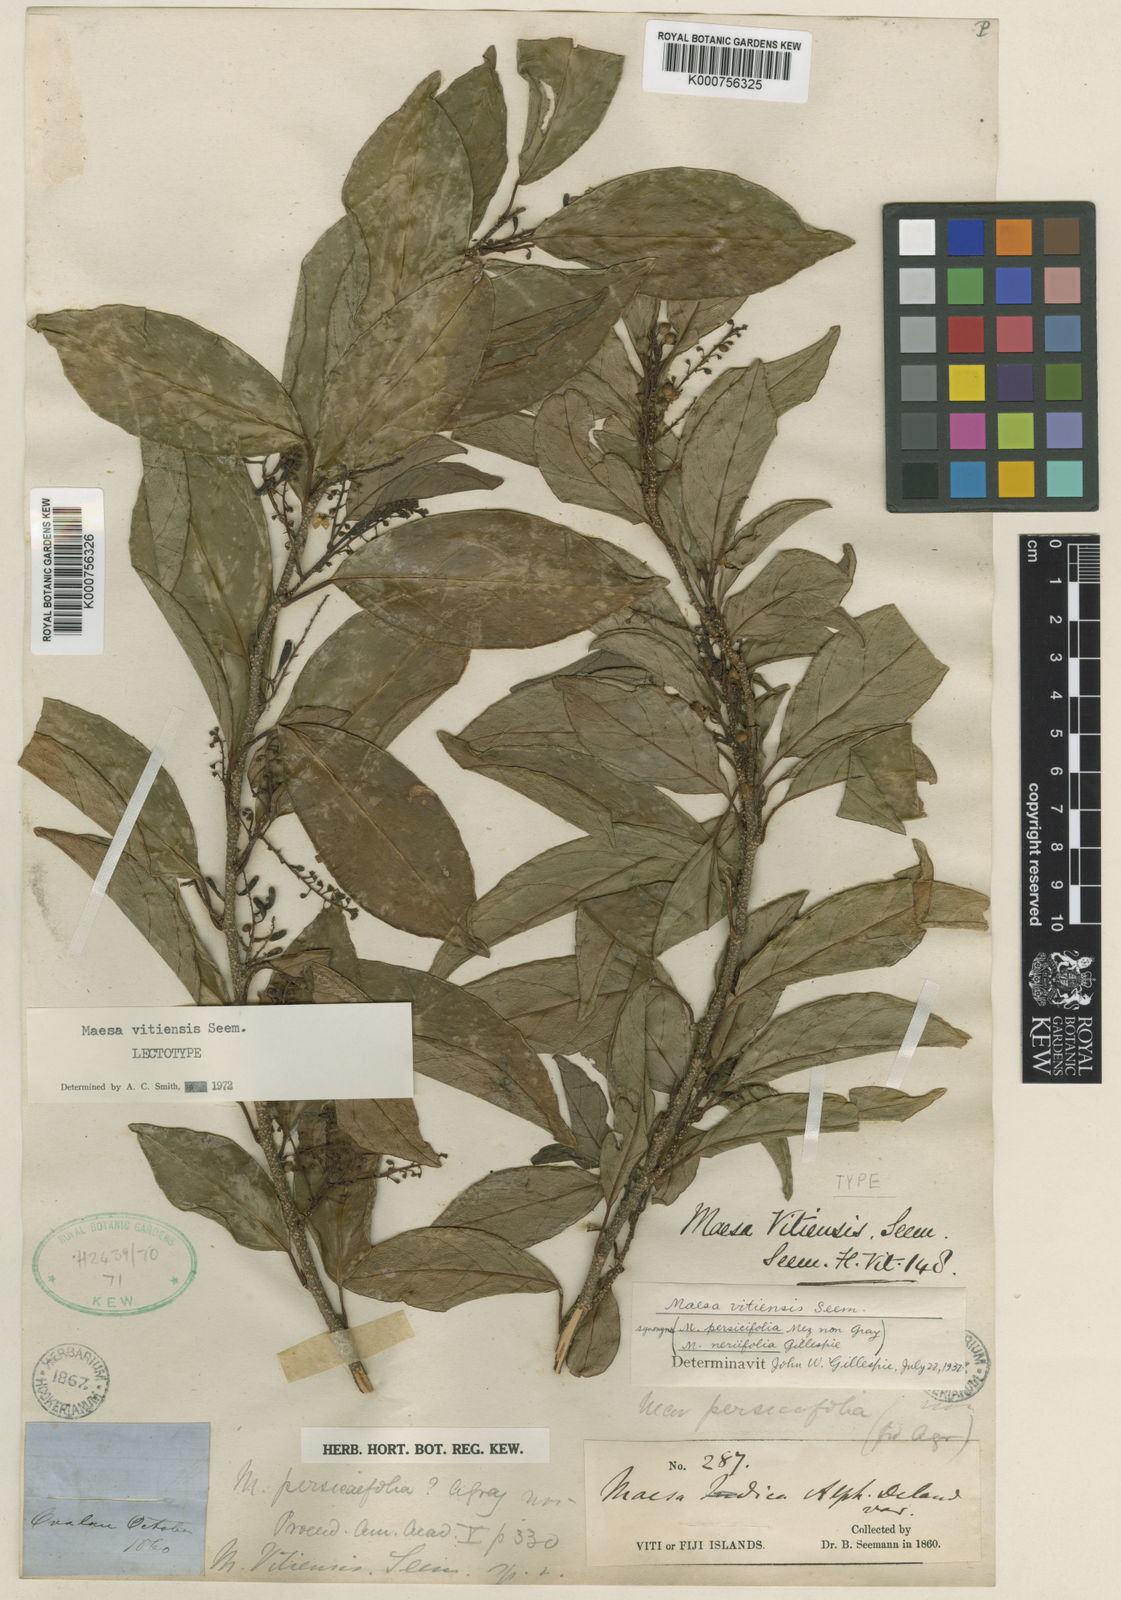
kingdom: Plantae
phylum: Tracheophyta
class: Magnoliopsida
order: Ericales
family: Primulaceae
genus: Maesa
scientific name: Maesa vitiensis
